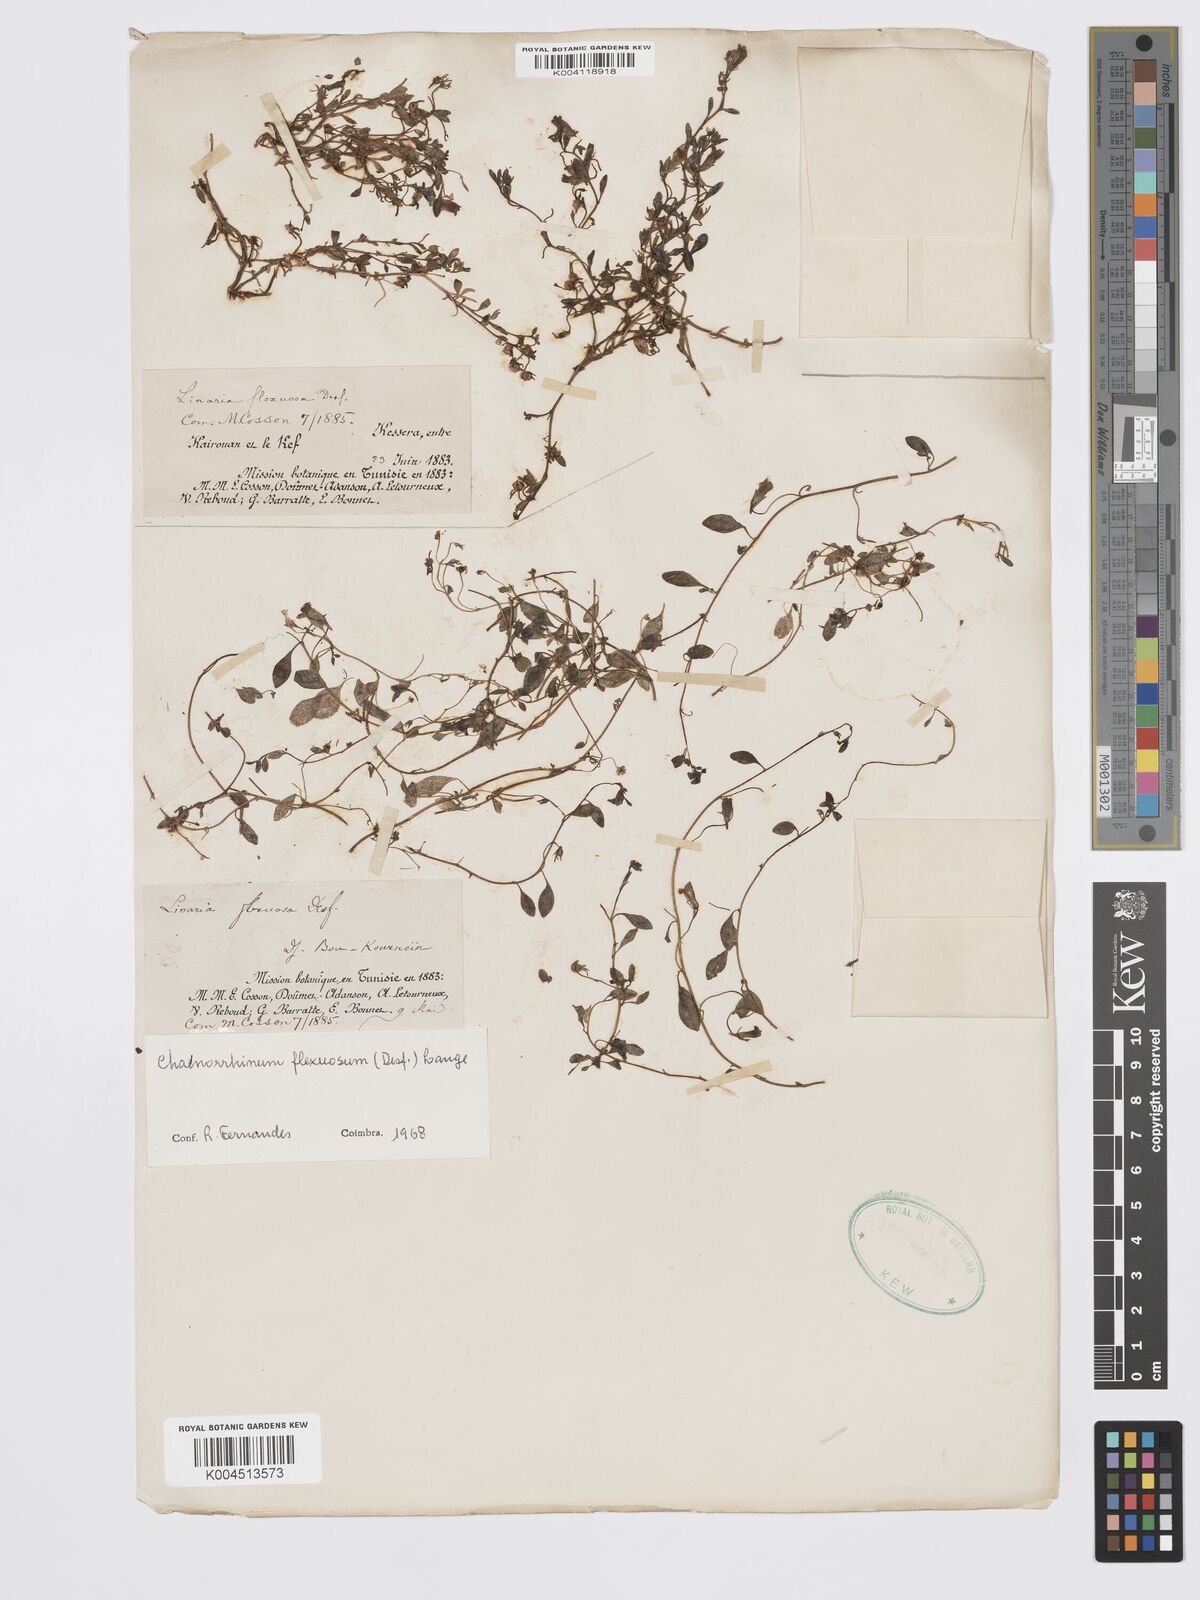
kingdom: Plantae
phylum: Tracheophyta
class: Magnoliopsida
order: Lamiales
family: Plantaginaceae
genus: Chaenorhinum
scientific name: Chaenorhinum flexuosum
